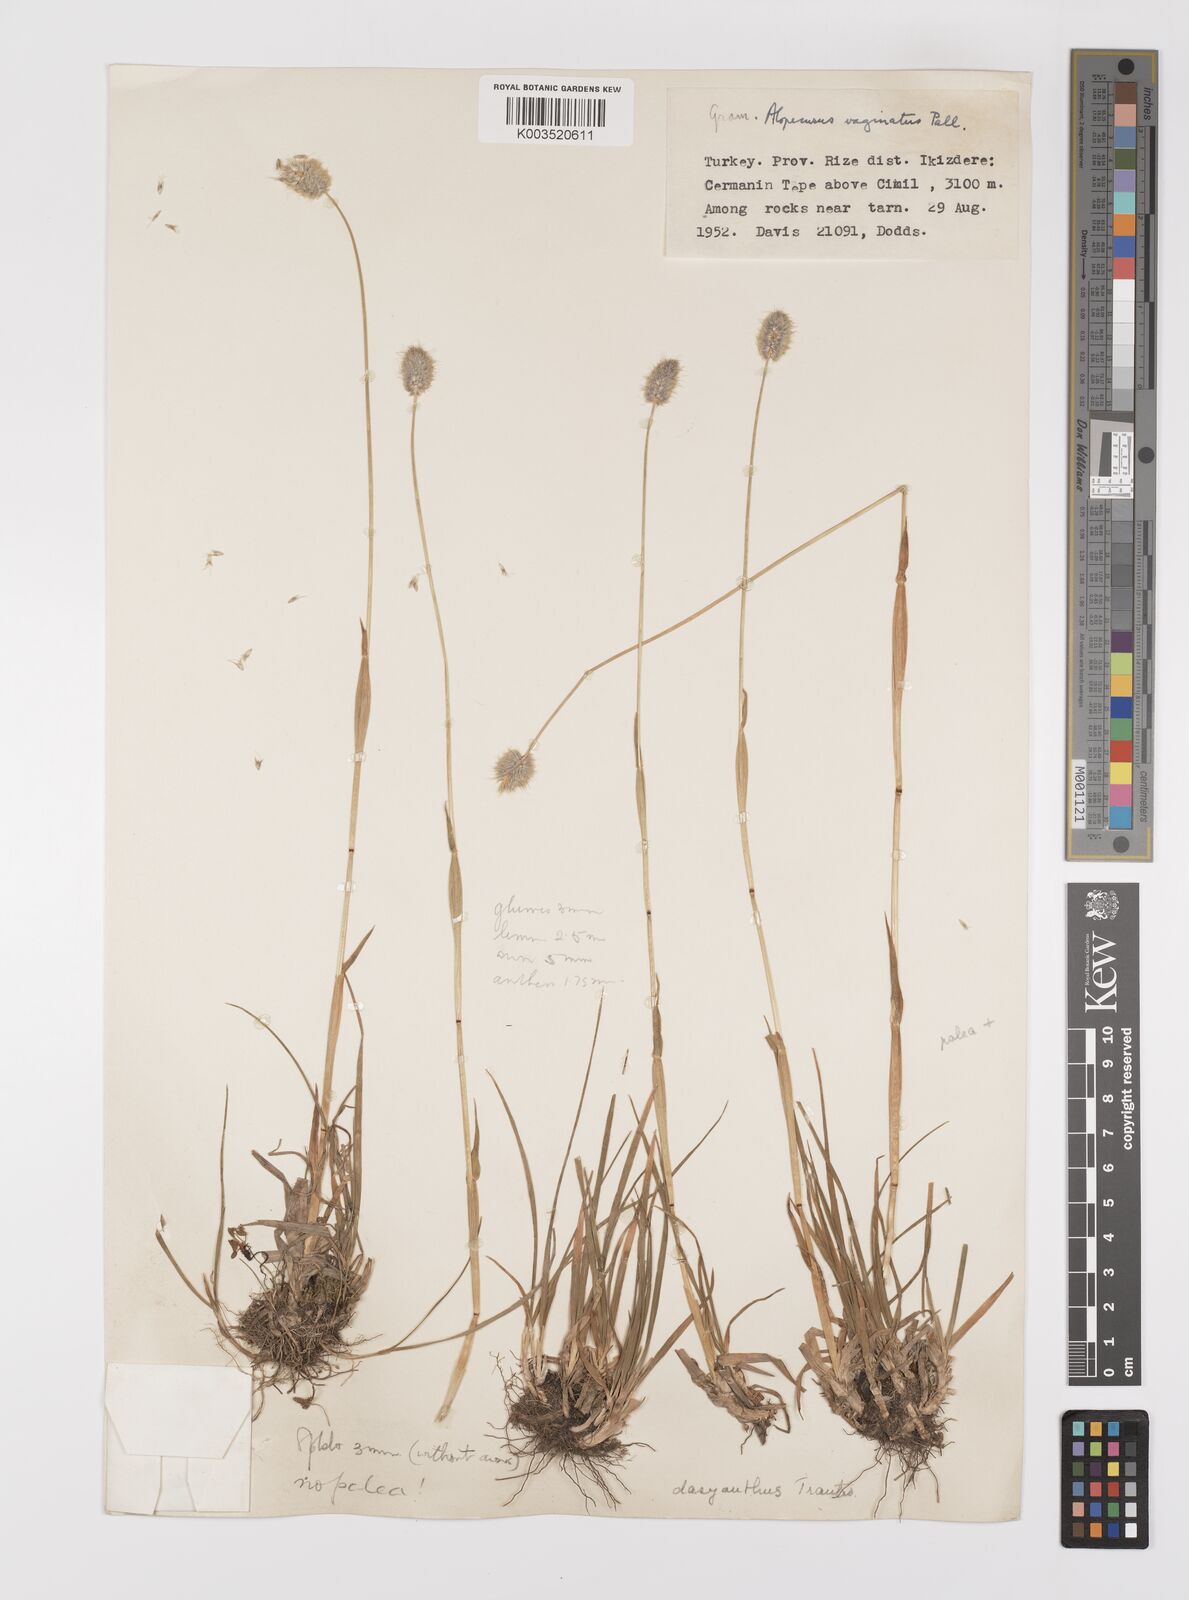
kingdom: Plantae
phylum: Tracheophyta
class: Liliopsida
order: Poales
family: Poaceae
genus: Alopecurus
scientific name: Alopecurus dasyanthus
